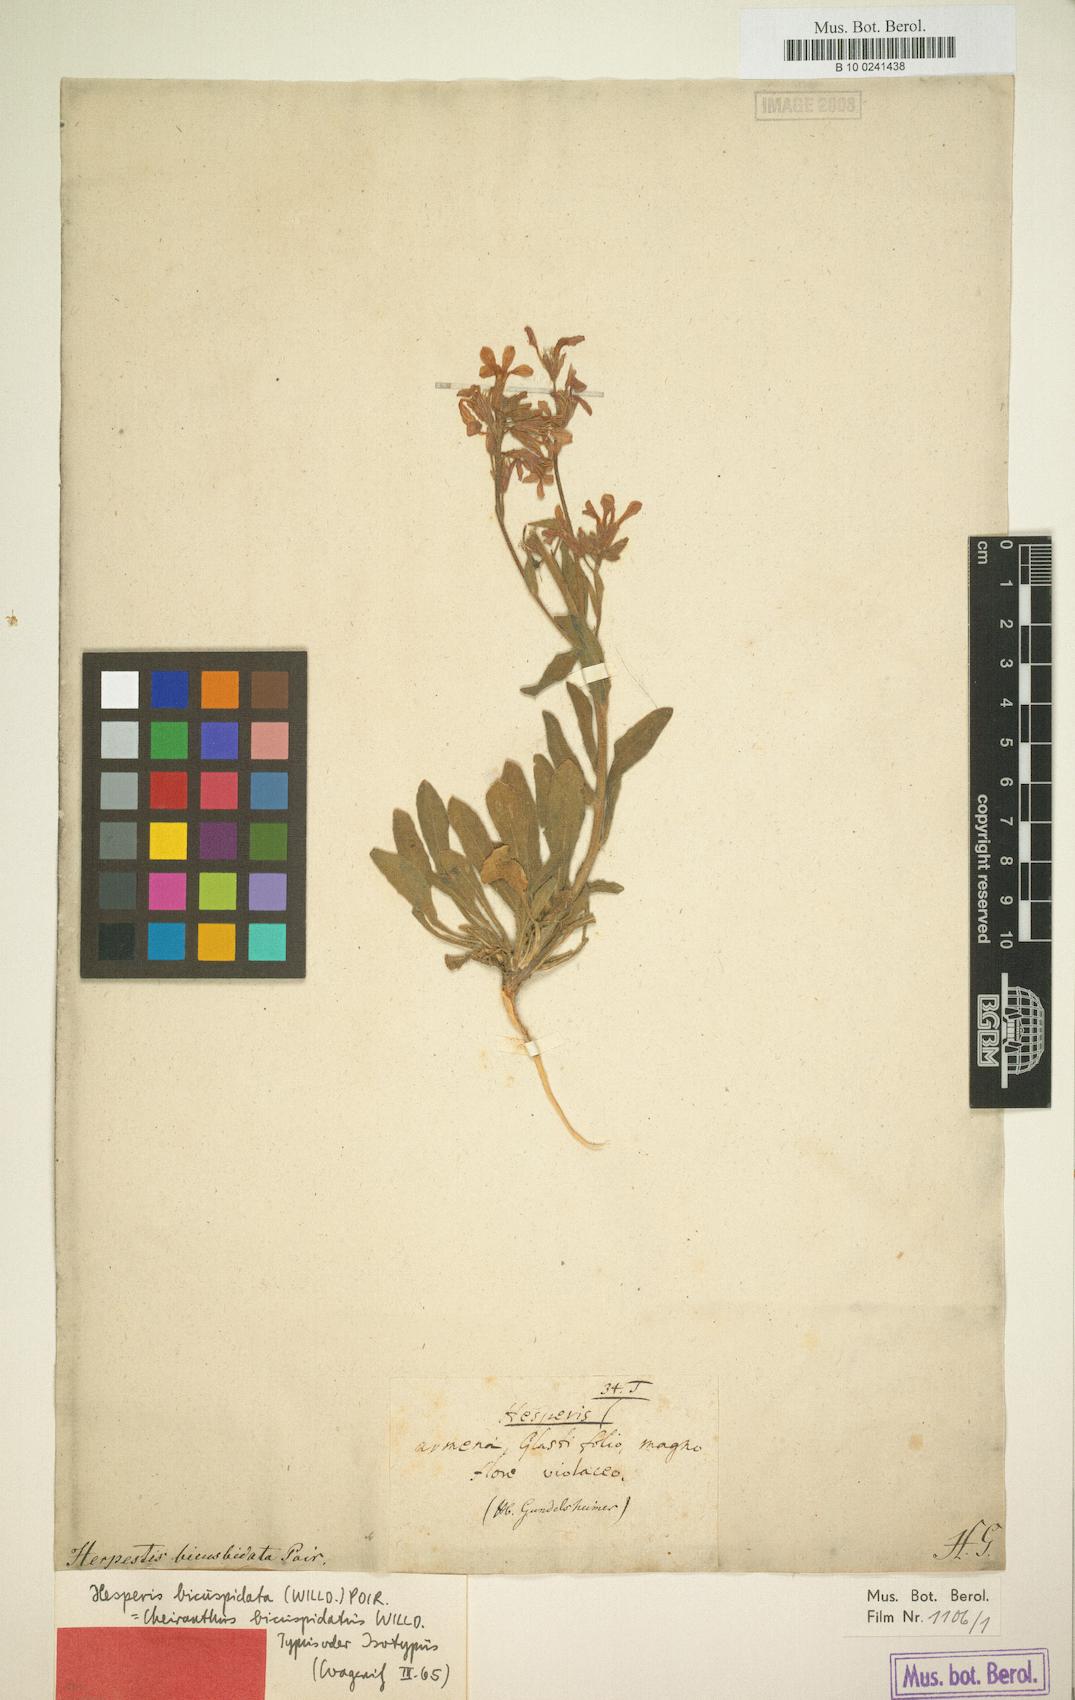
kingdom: Plantae
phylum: Tracheophyta
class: Magnoliopsida
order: Brassicales
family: Brassicaceae
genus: Hesperis
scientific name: Hesperis bicuspidata
